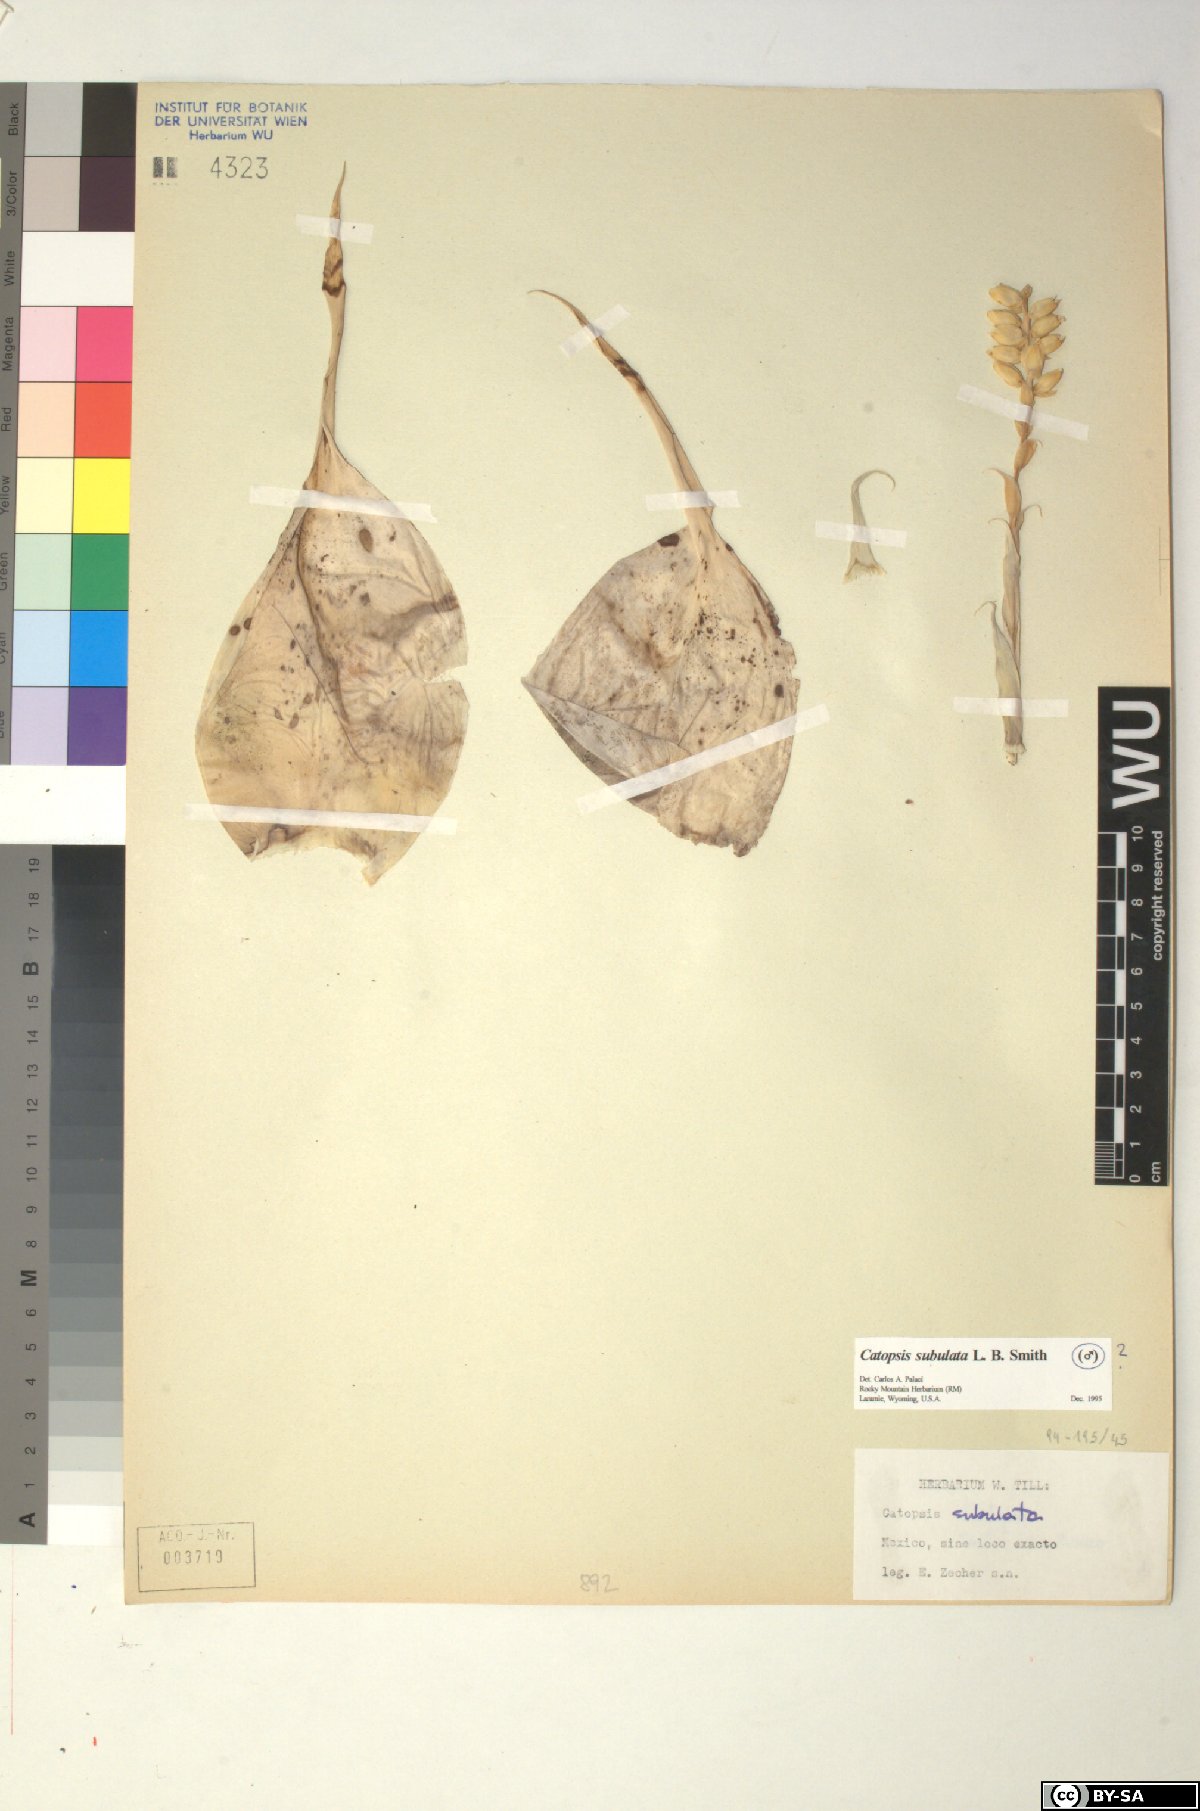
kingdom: Plantae
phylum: Tracheophyta
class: Liliopsida
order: Poales
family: Bromeliaceae
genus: Catopsis
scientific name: Catopsis subulata
